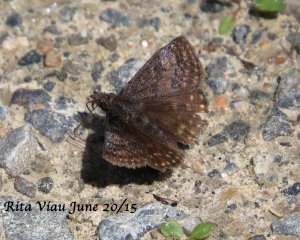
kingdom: Animalia
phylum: Arthropoda
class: Insecta
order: Lepidoptera
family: Hesperiidae
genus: Erynnis
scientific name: Erynnis icelus
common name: Dreamy Duskywing
